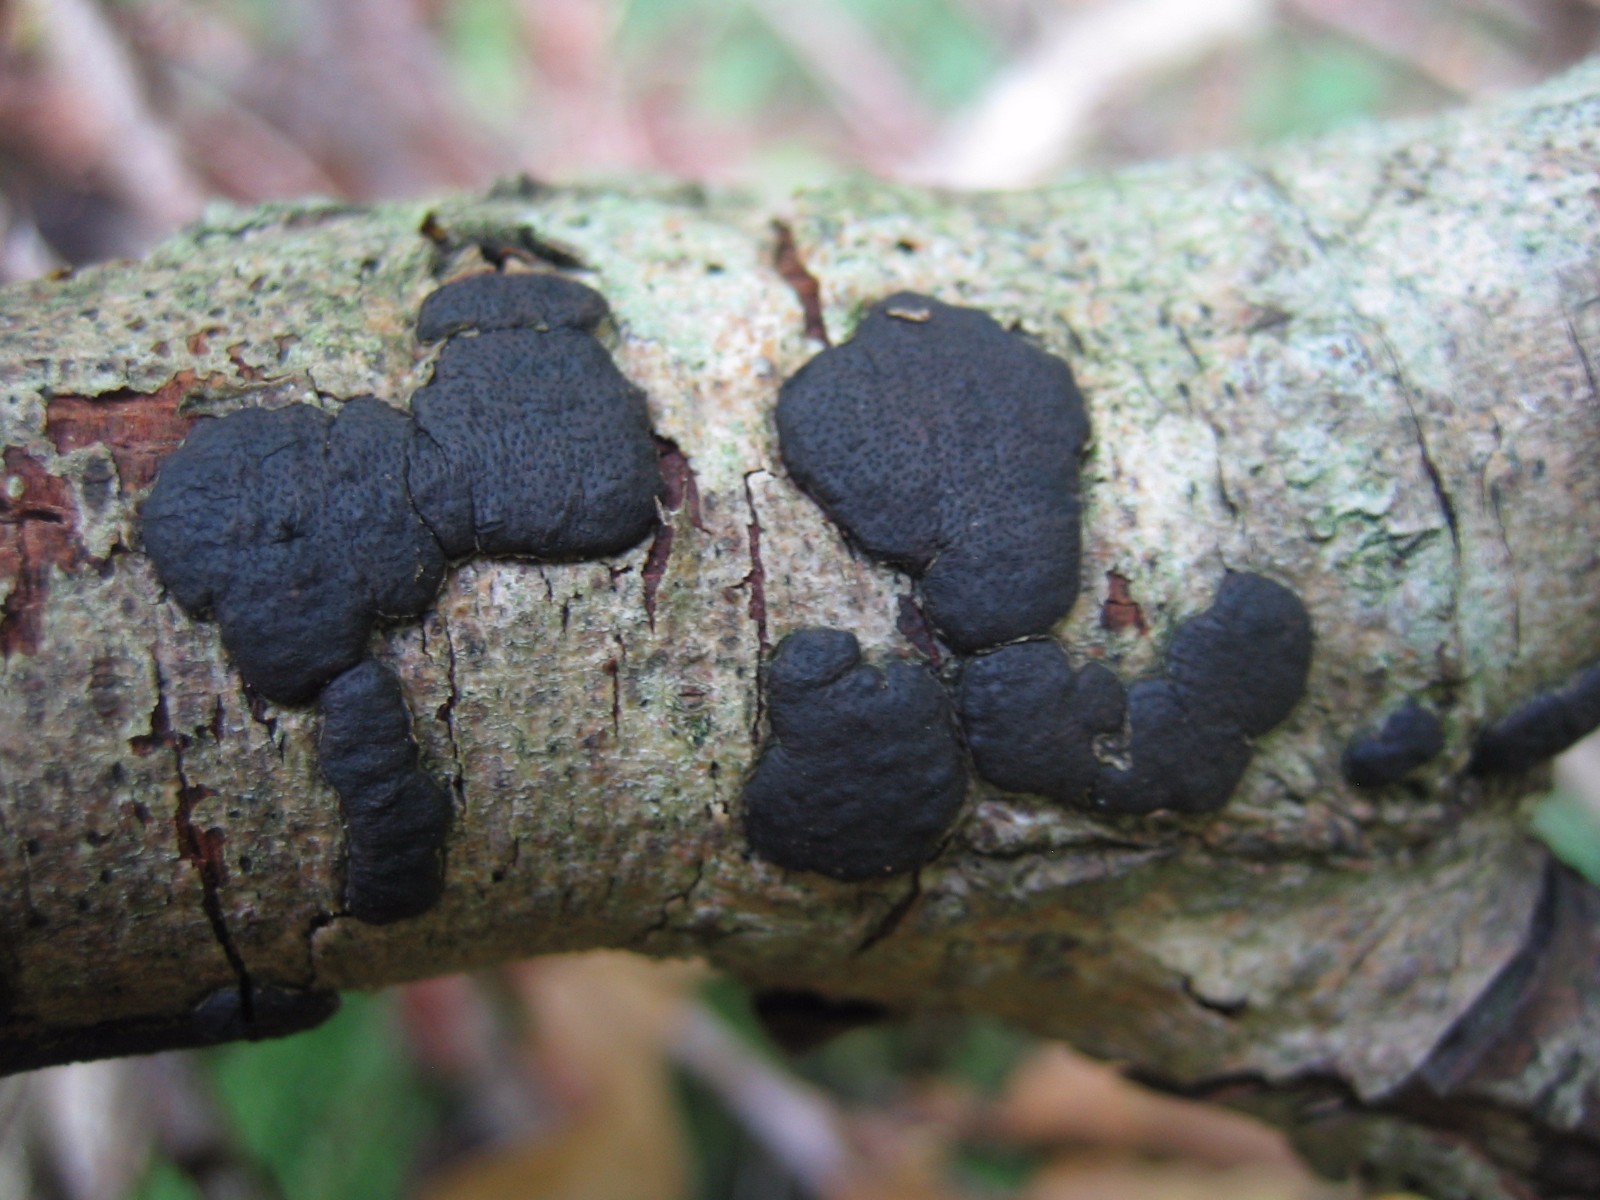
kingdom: Fungi
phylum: Ascomycota
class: Sordariomycetes
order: Xylariales
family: Diatrypaceae
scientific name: Diatrypaceae
